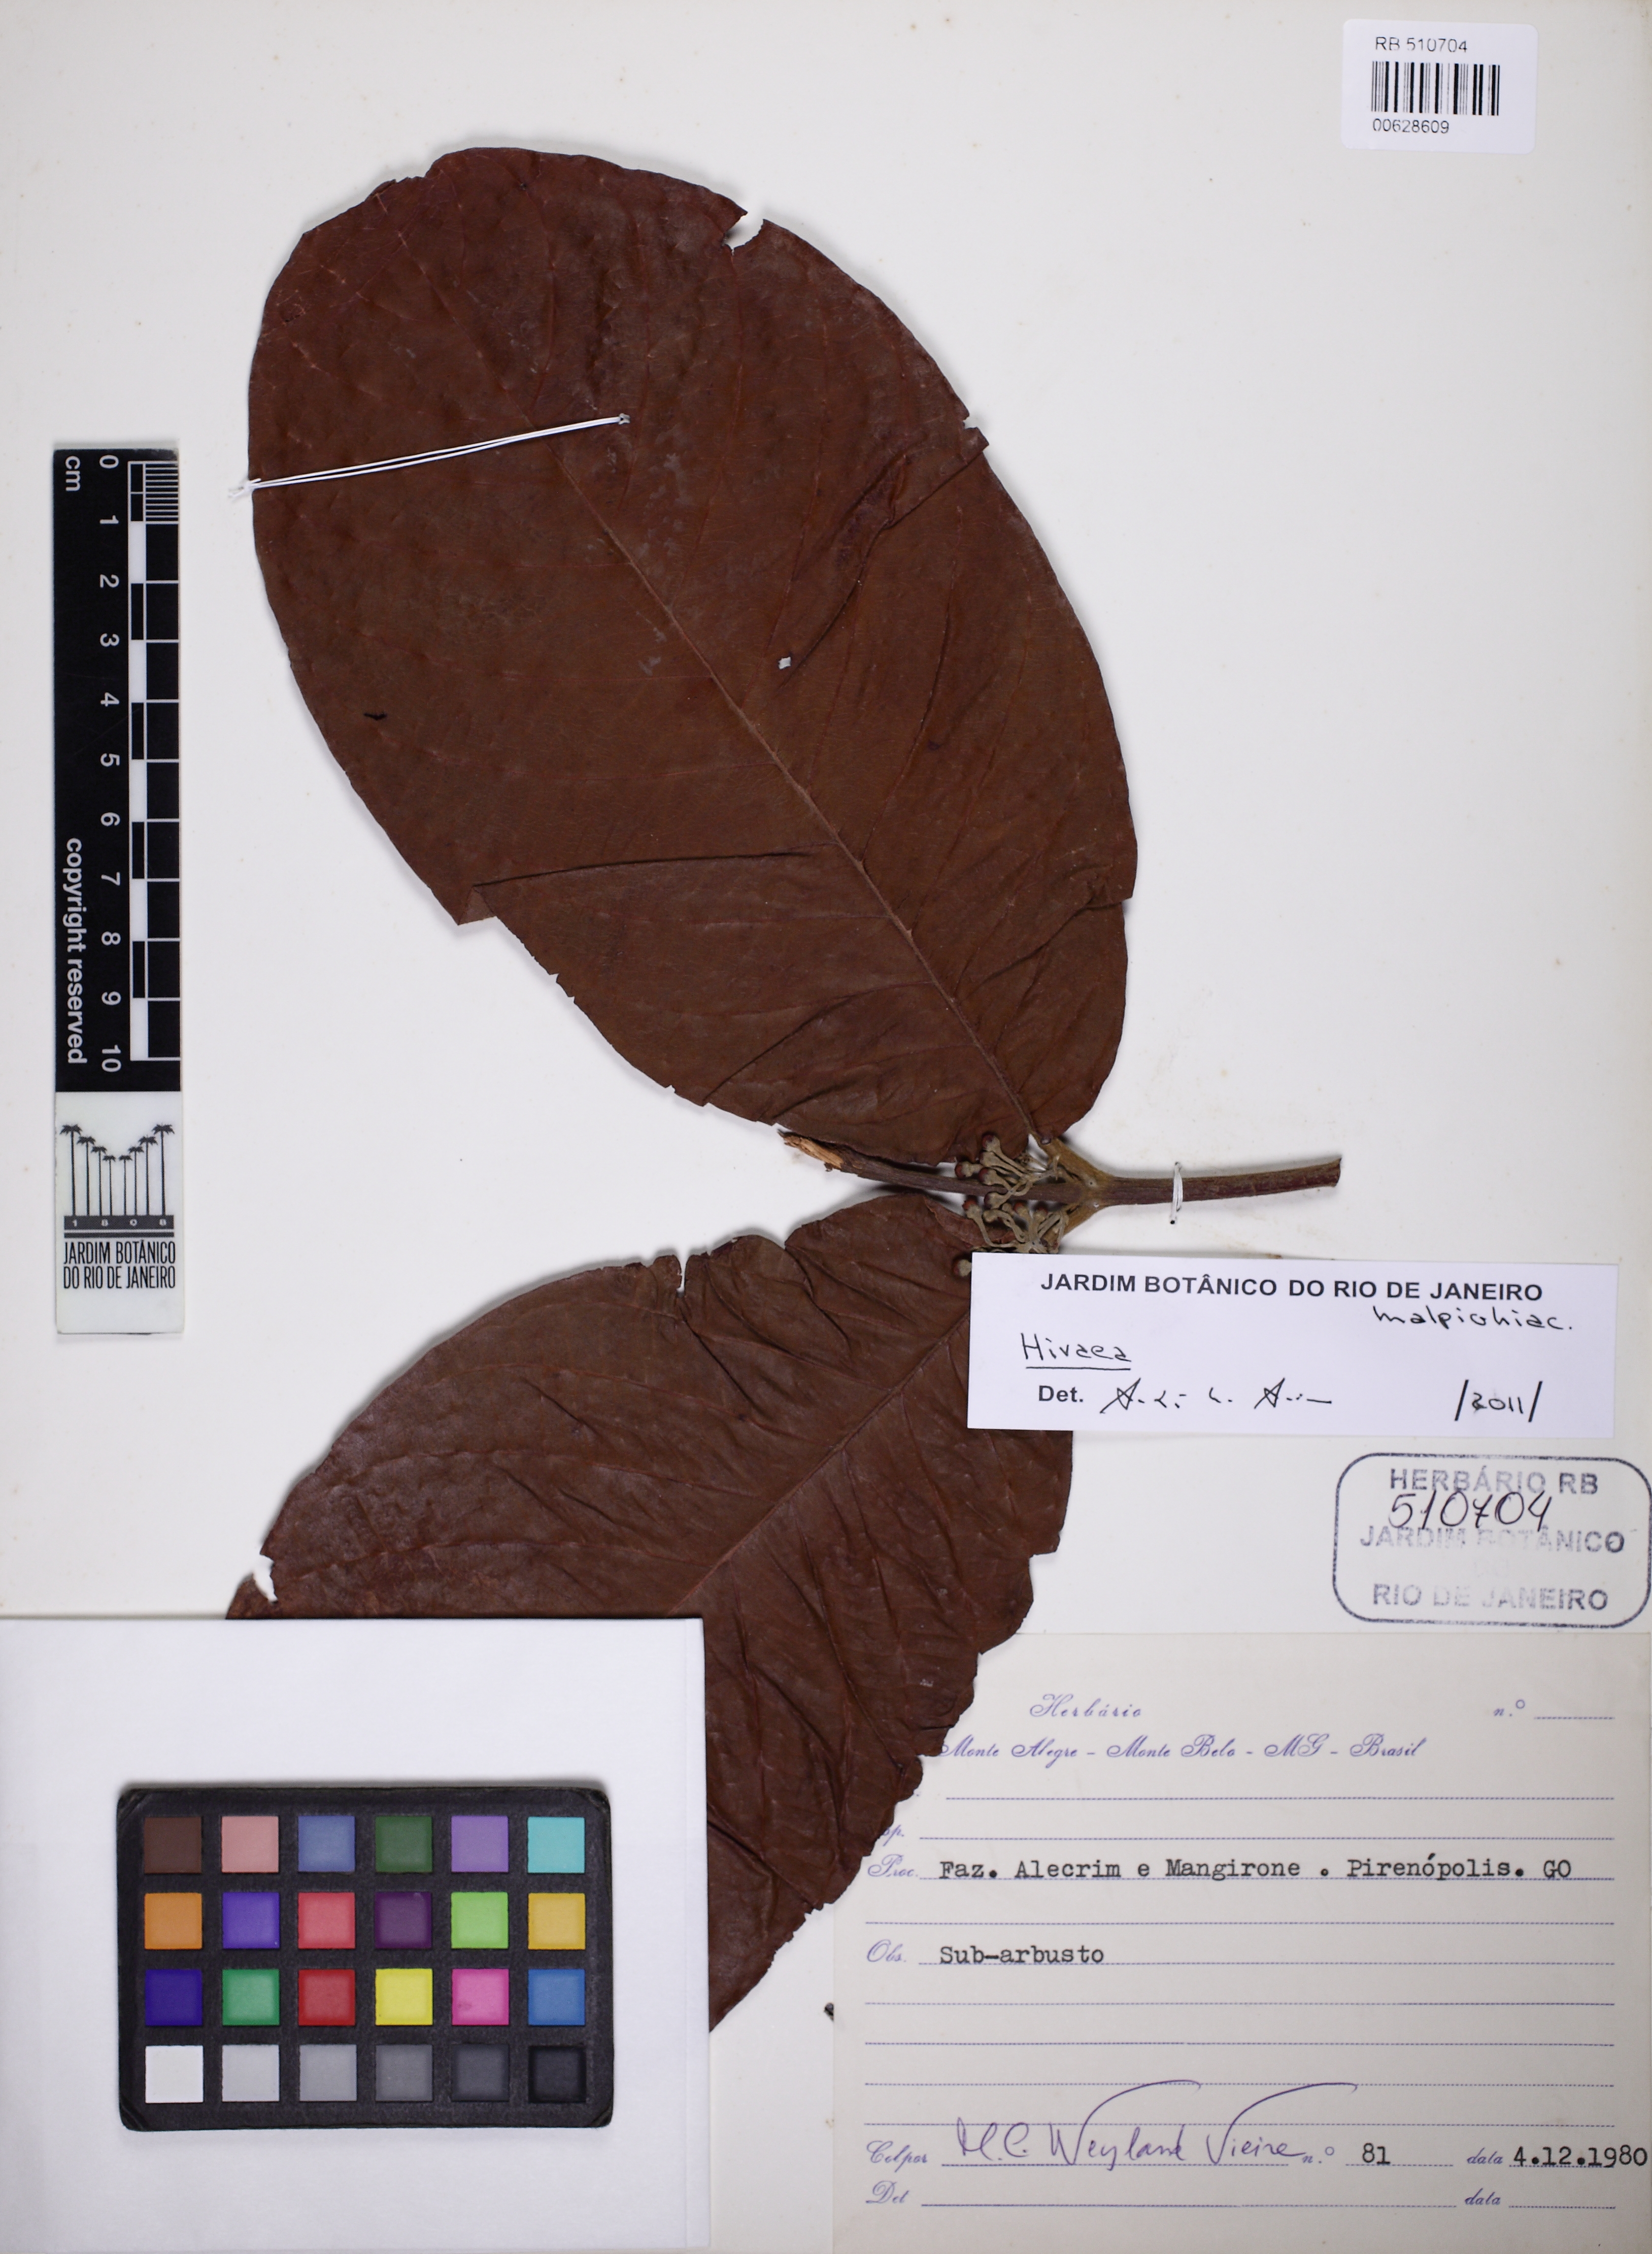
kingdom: Plantae
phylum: Tracheophyta
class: Magnoliopsida
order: Malpighiales
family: Malpighiaceae
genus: Hiraea
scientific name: Hiraea
